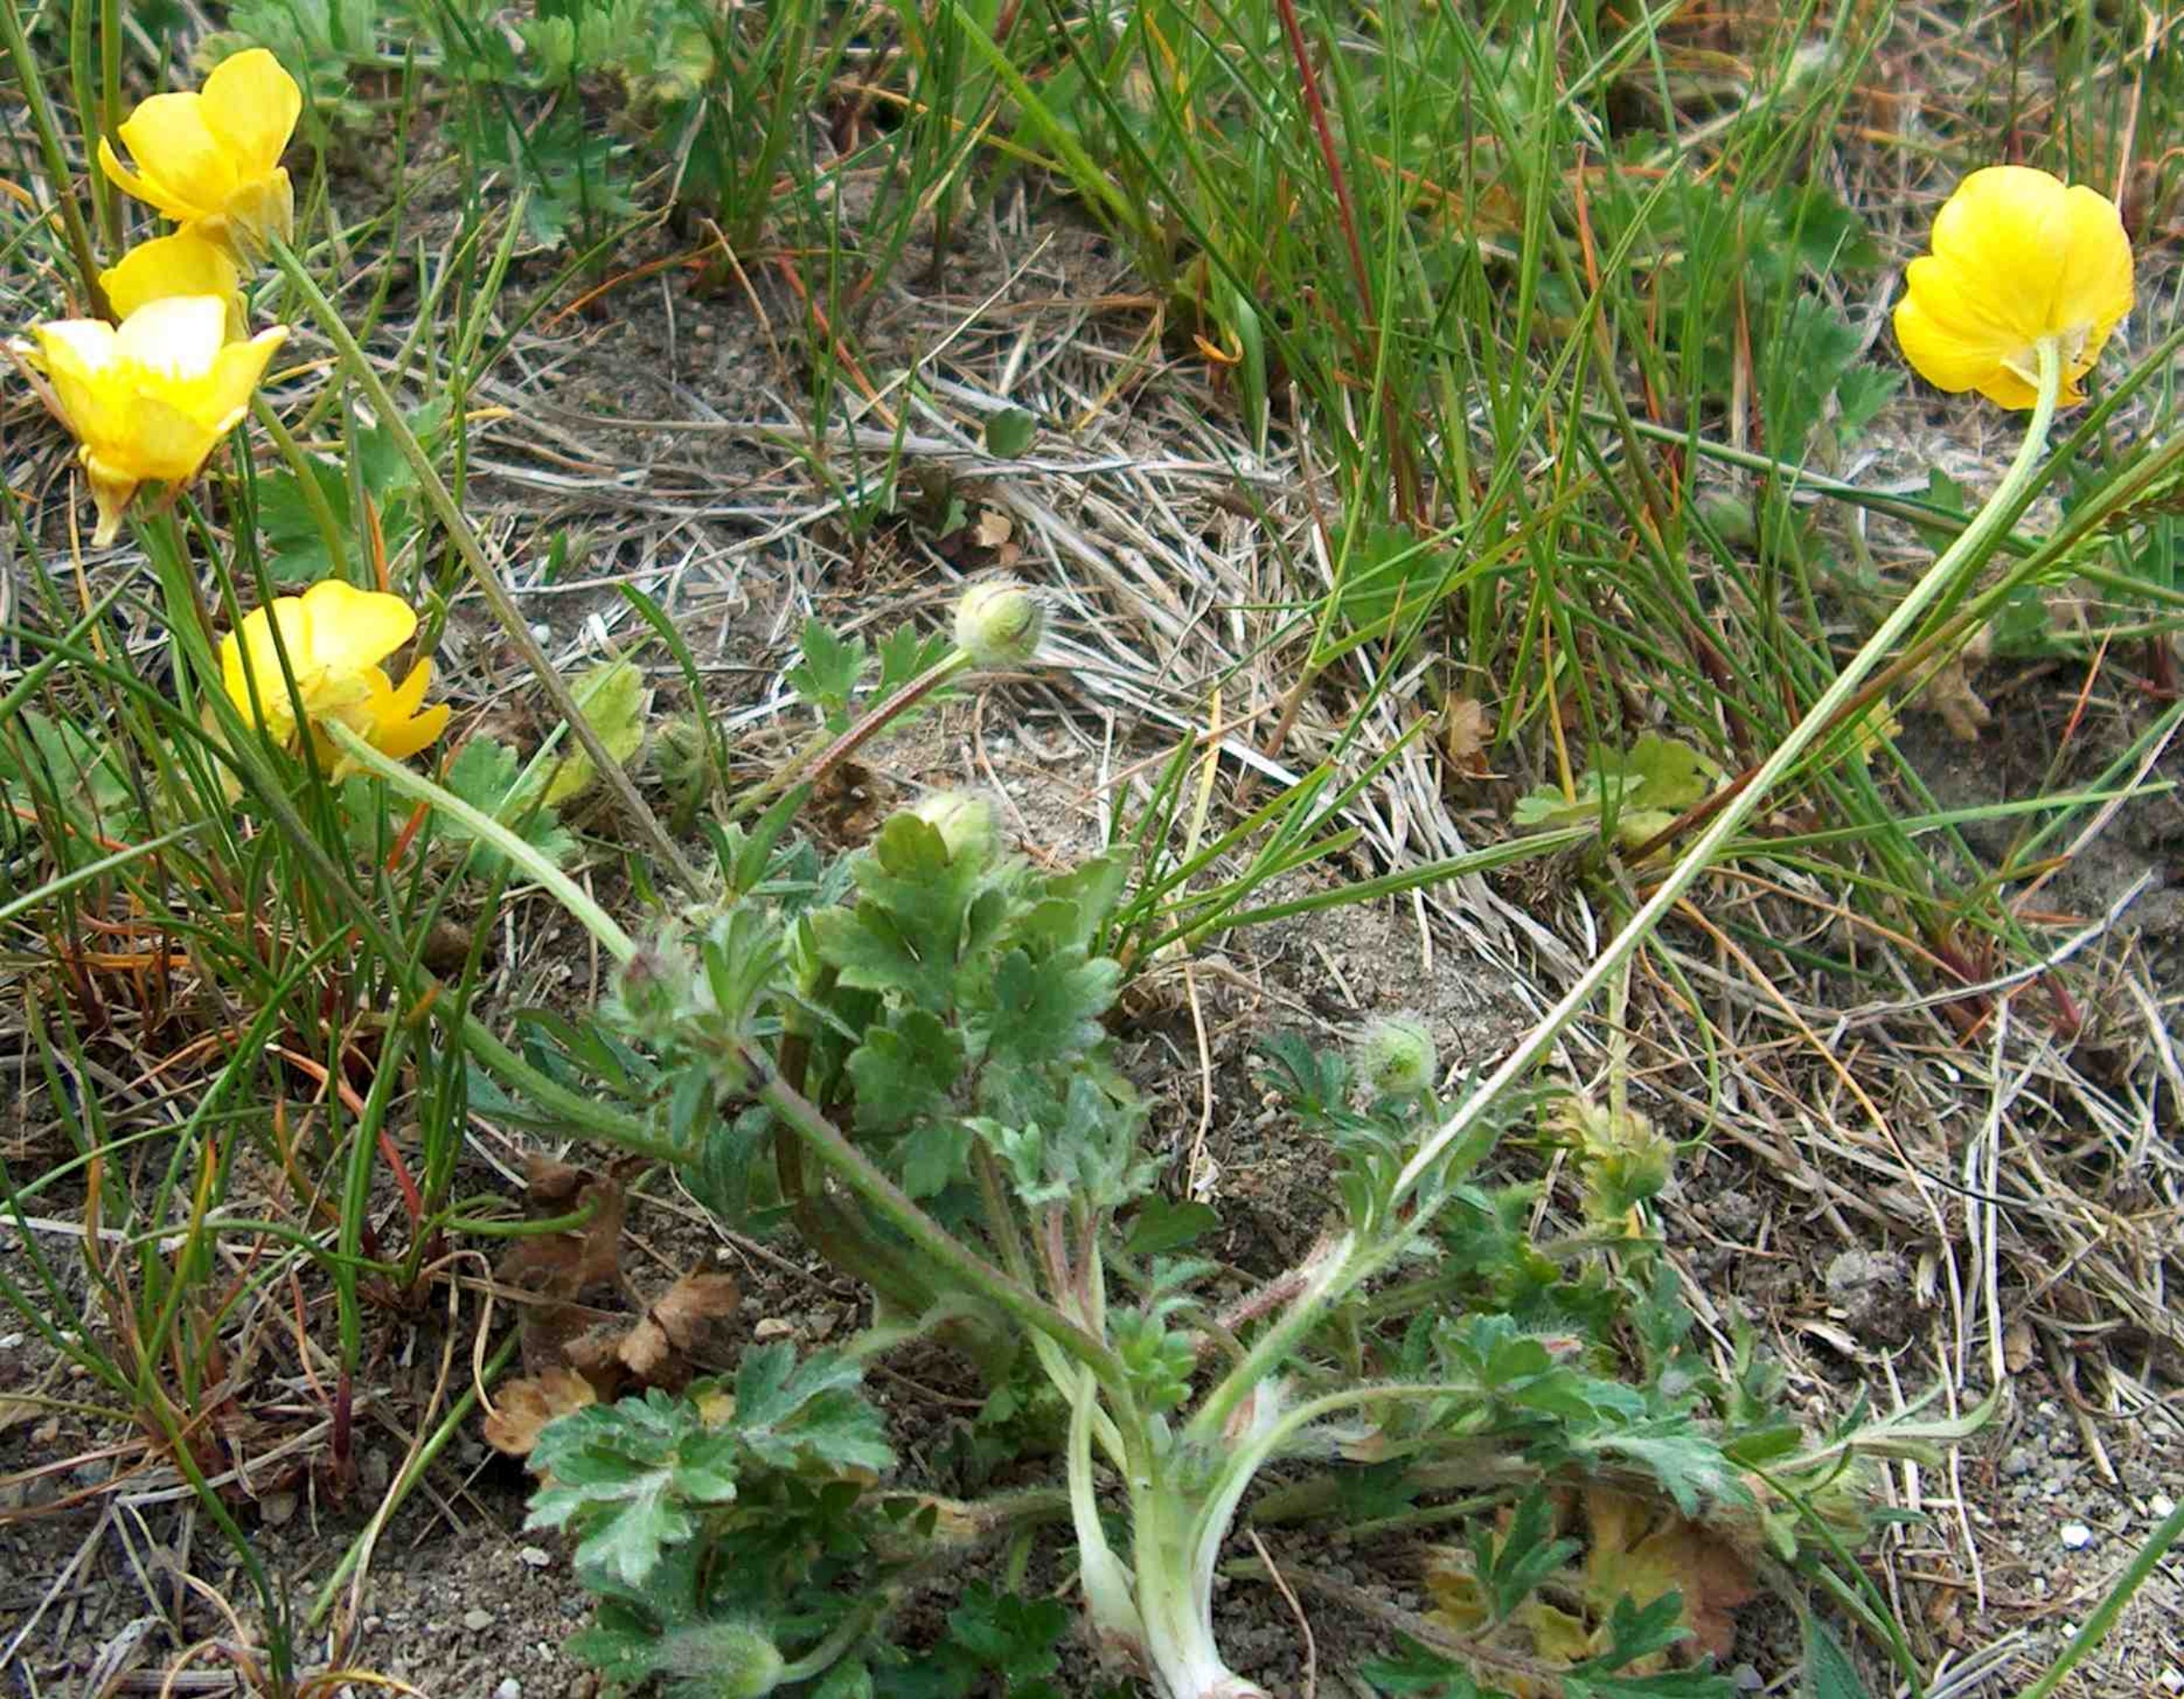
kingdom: Plantae
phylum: Tracheophyta
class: Magnoliopsida
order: Ranunculales
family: Ranunculaceae
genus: Ranunculus
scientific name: Ranunculus bulbosus
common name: Knold-ranunkel
